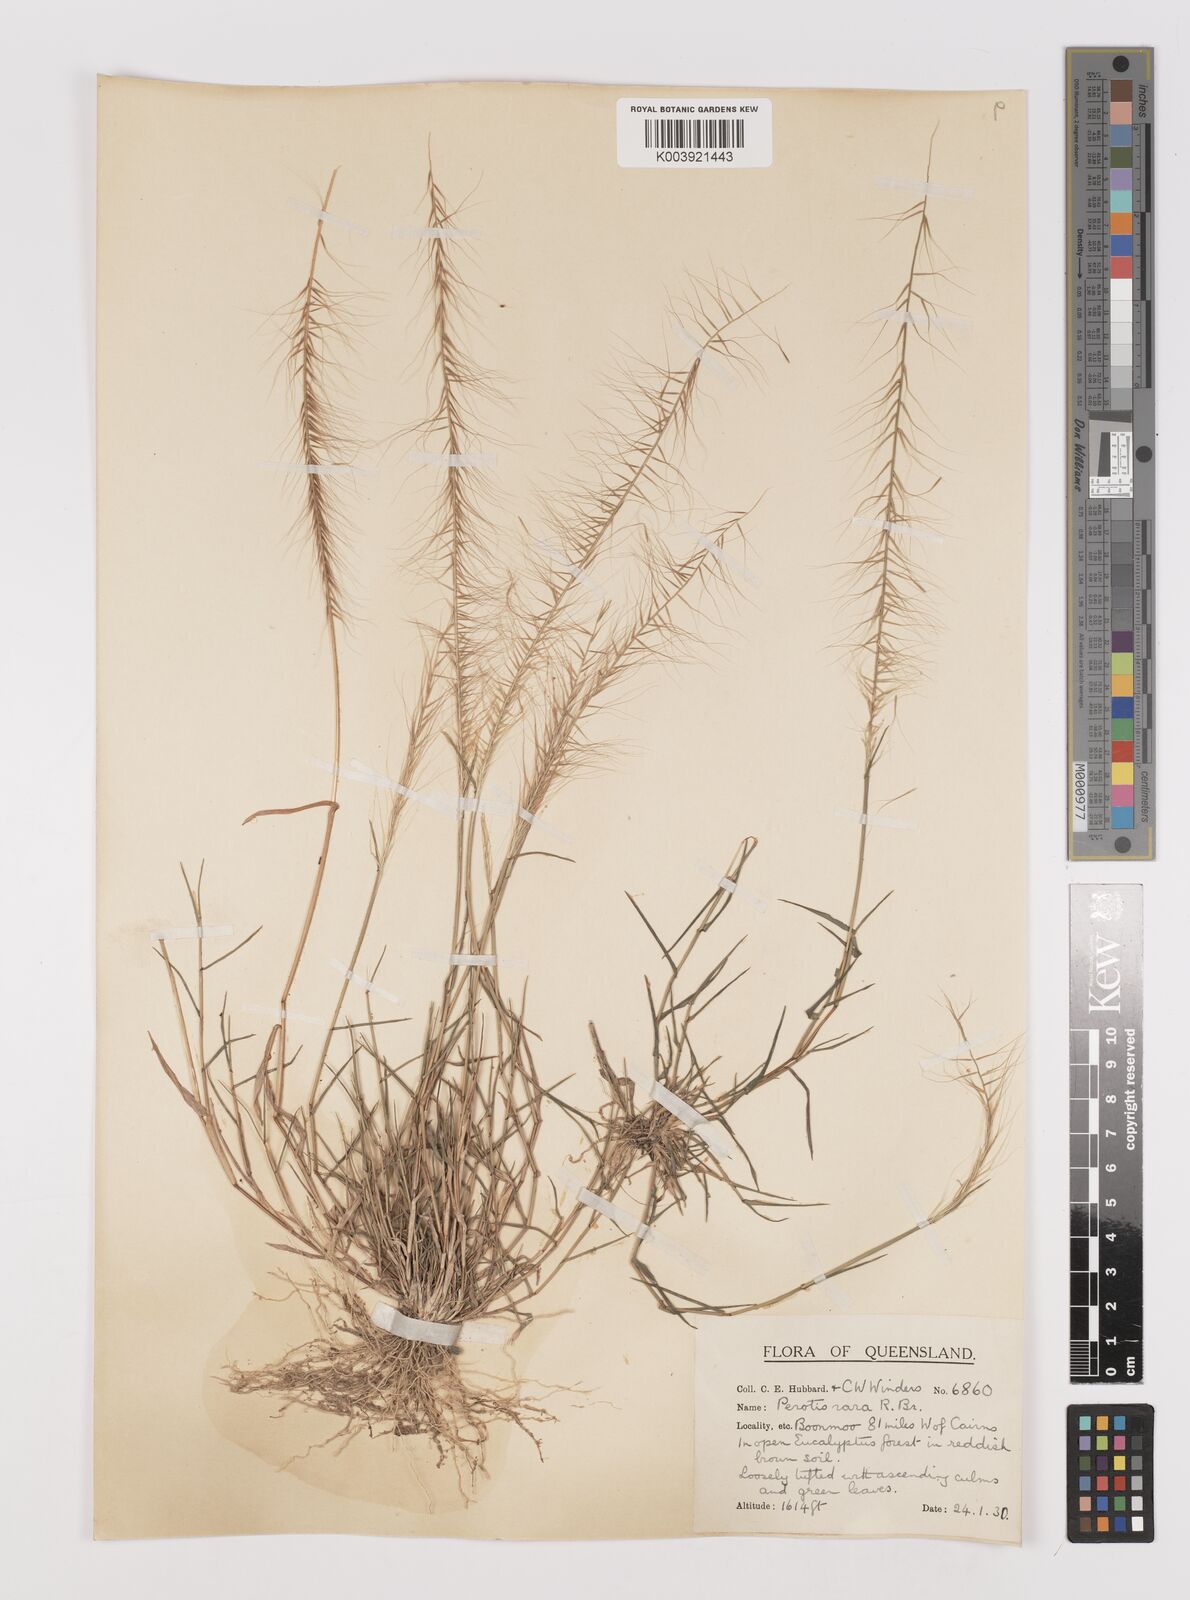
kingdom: Plantae
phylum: Tracheophyta
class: Liliopsida
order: Poales
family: Poaceae
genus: Perotis
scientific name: Perotis rara
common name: Comet grass
